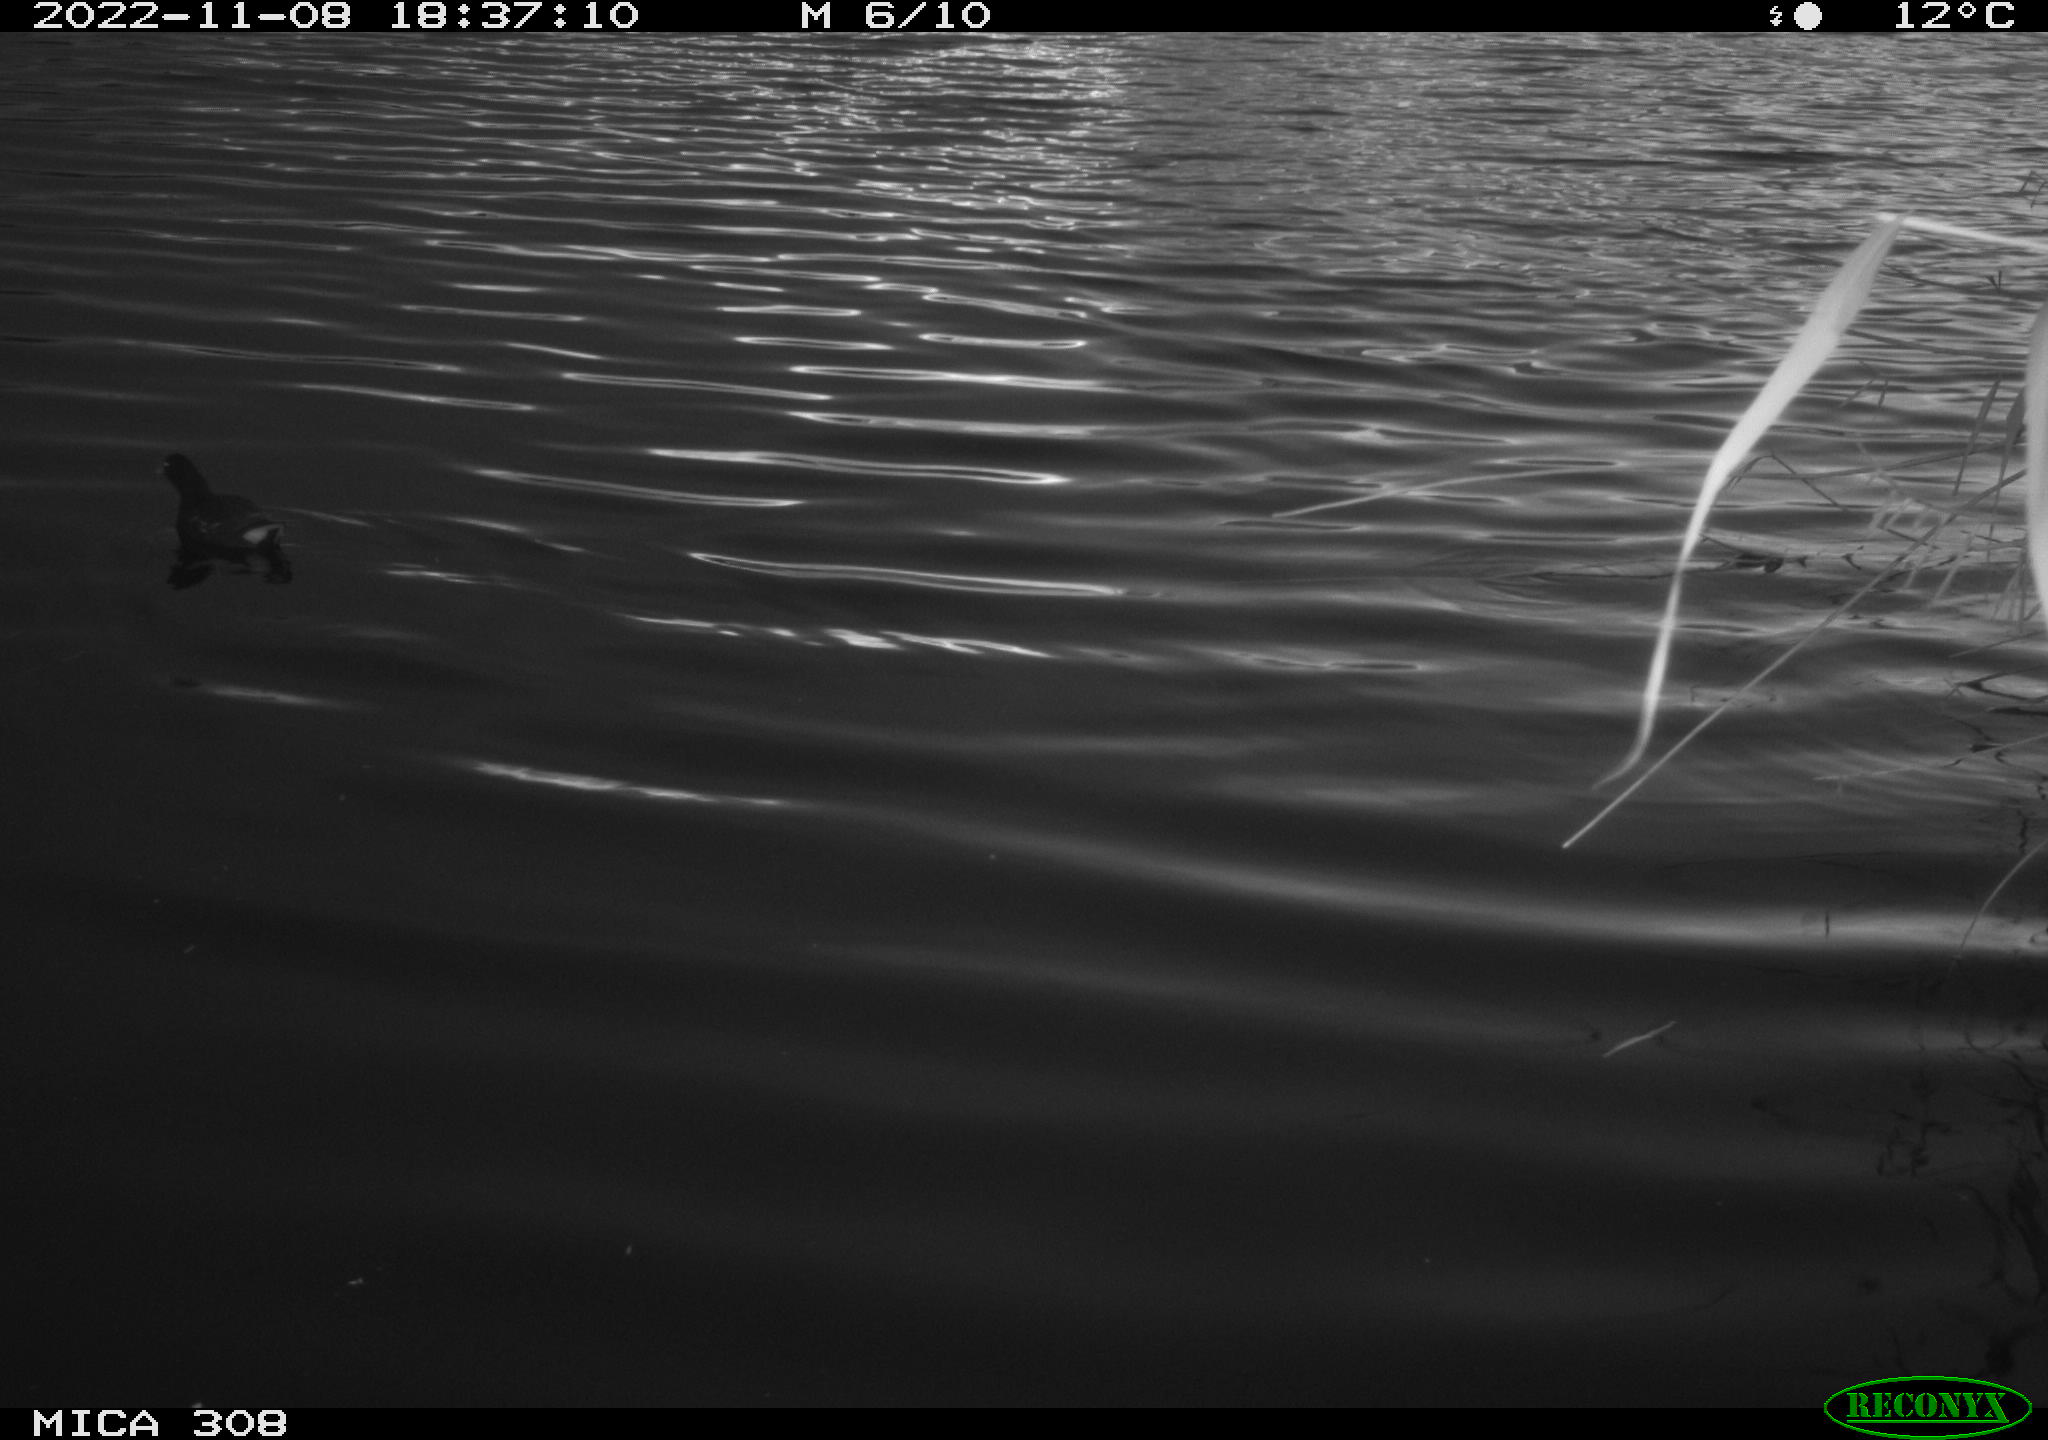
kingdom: Animalia
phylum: Chordata
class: Aves
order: Gruiformes
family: Rallidae
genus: Gallinula
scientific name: Gallinula chloropus
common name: Common moorhen
